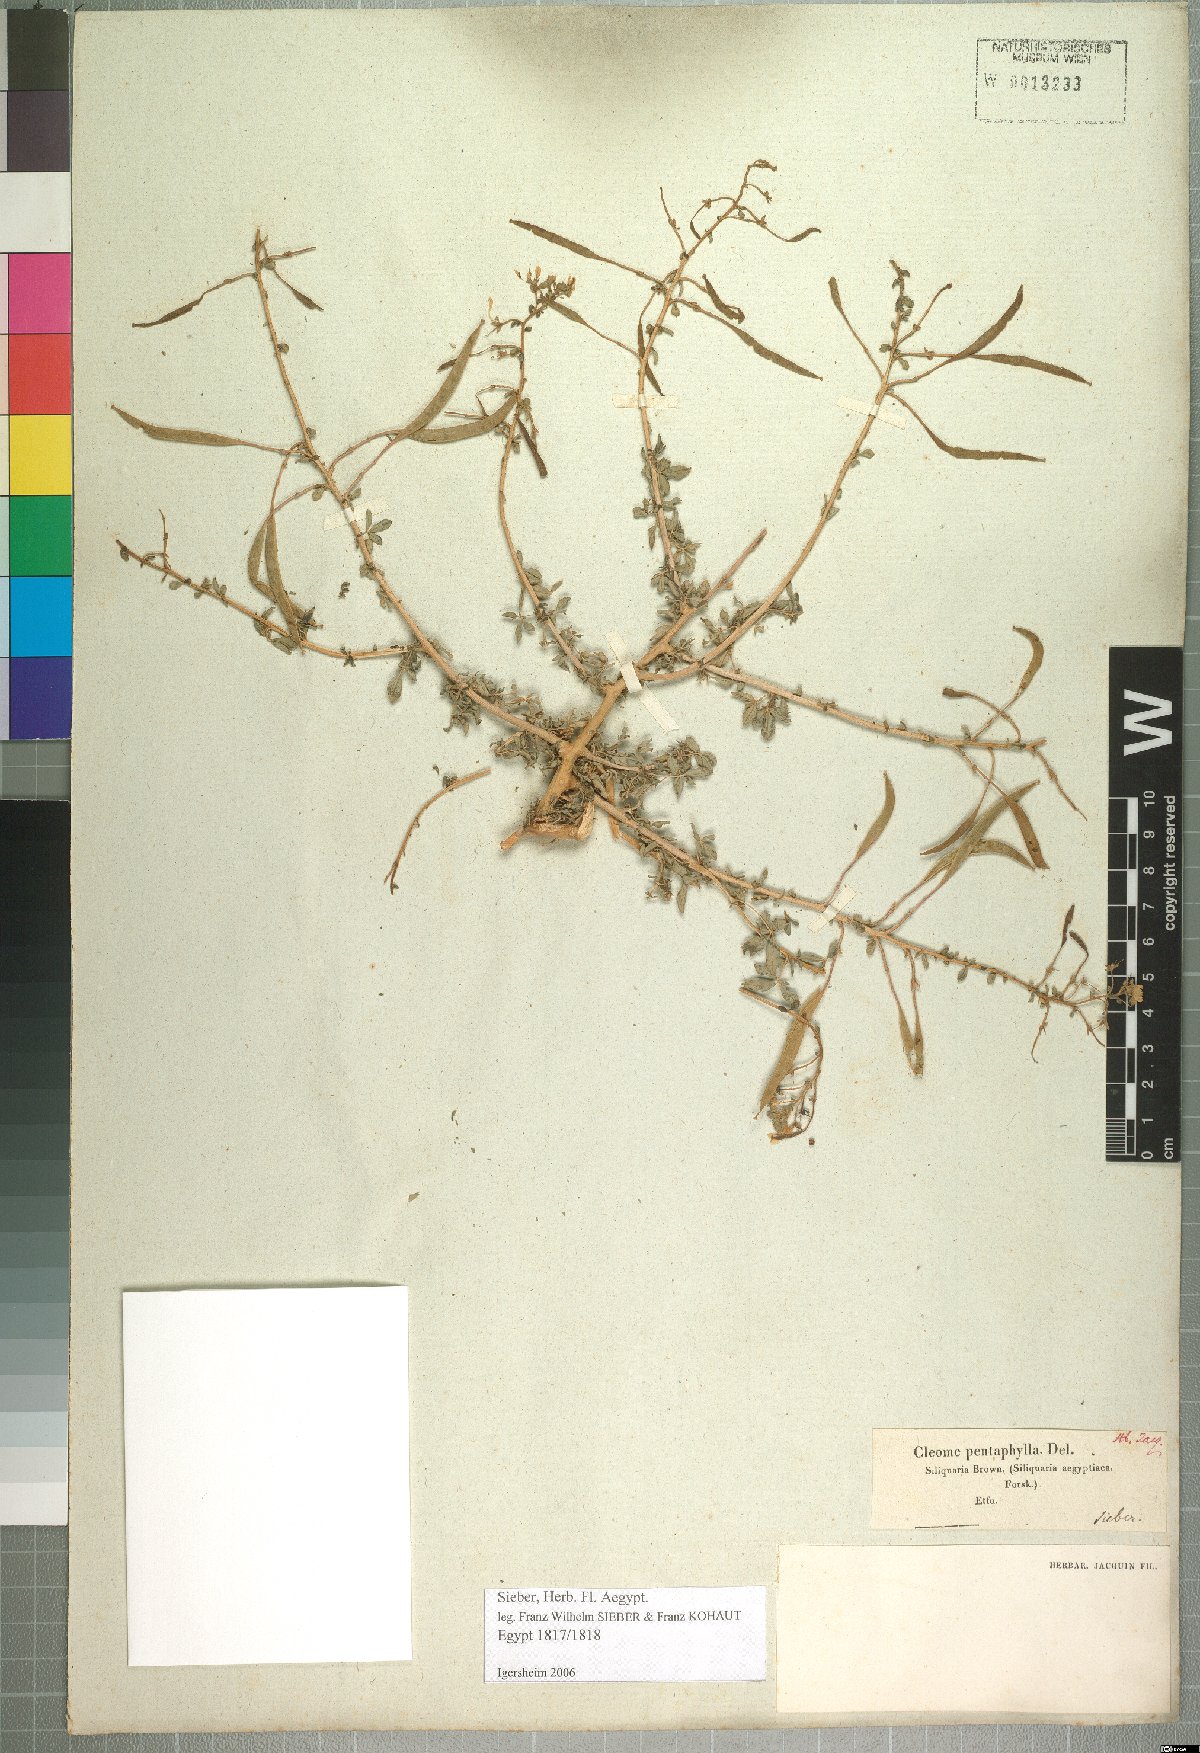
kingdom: Plantae
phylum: Tracheophyta
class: Magnoliopsida
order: Brassicales
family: Cleomaceae
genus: Gynandropsis
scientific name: Gynandropsis gynandra
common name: Spiderwisp
